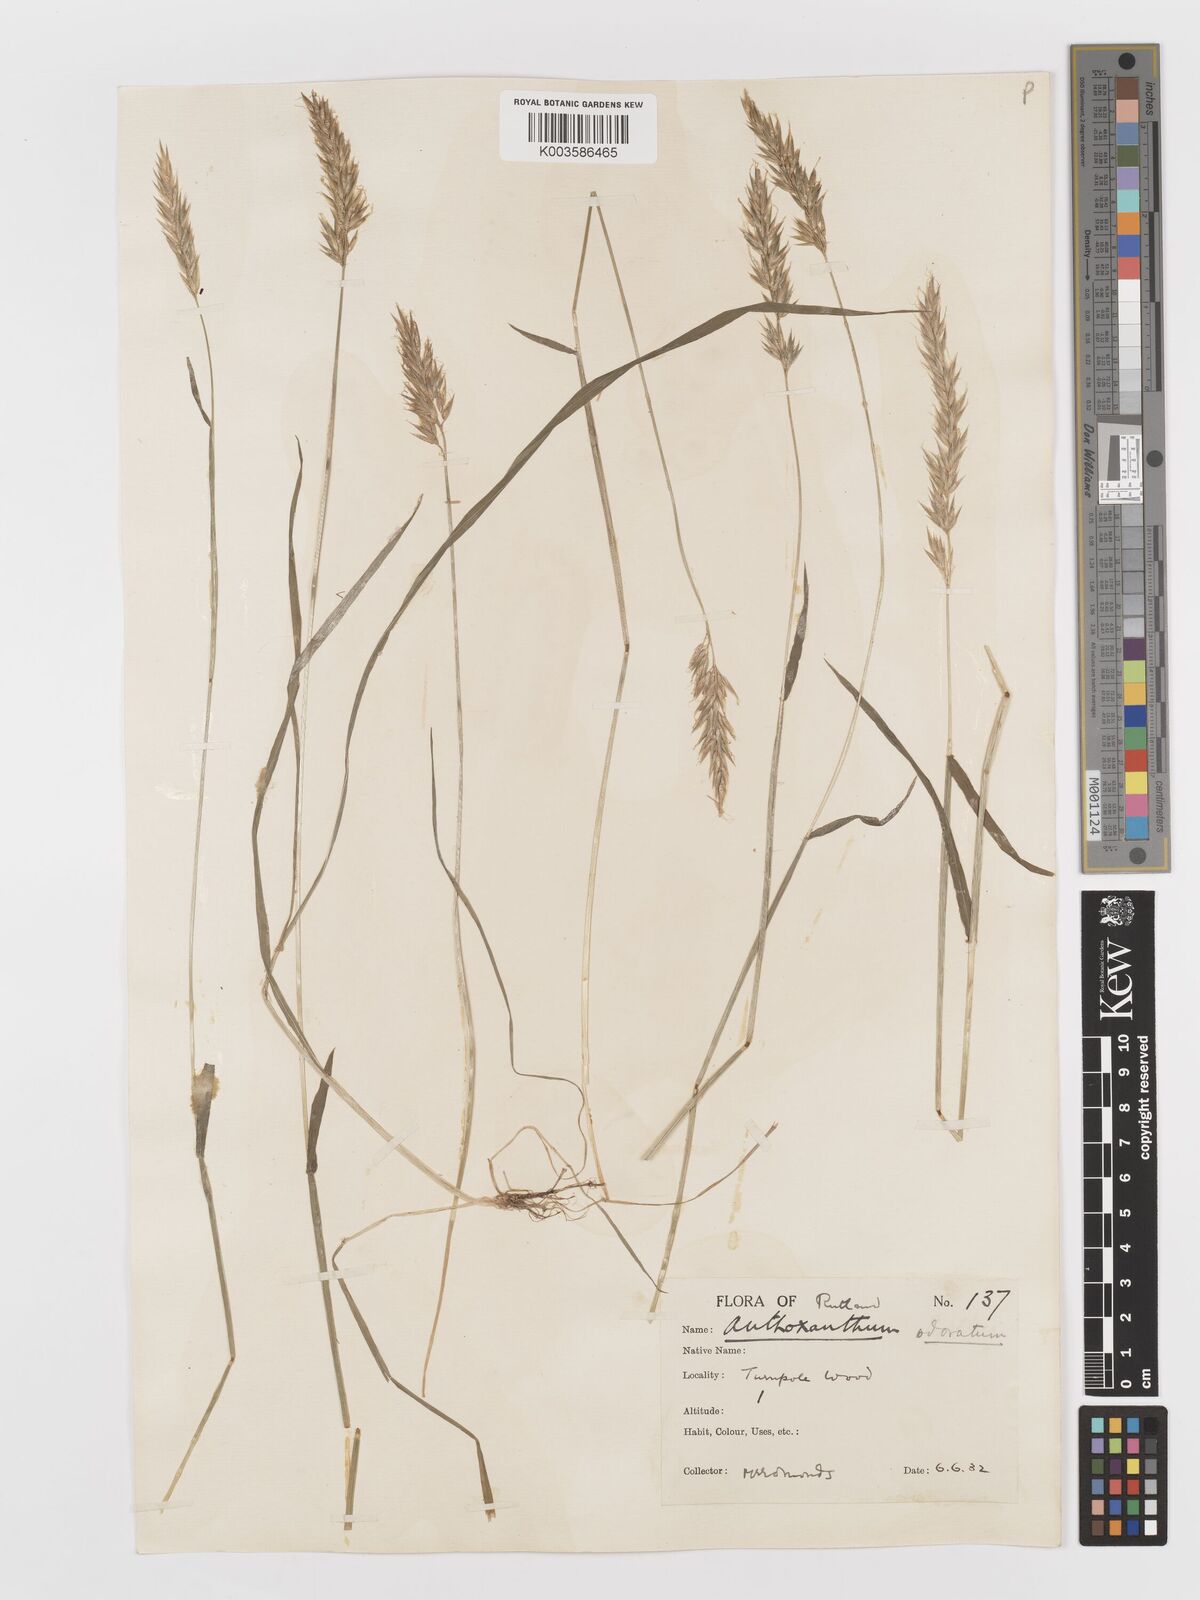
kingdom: Plantae
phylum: Tracheophyta
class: Liliopsida
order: Poales
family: Poaceae
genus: Anthoxanthum
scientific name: Anthoxanthum odoratum
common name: Sweet vernalgrass
